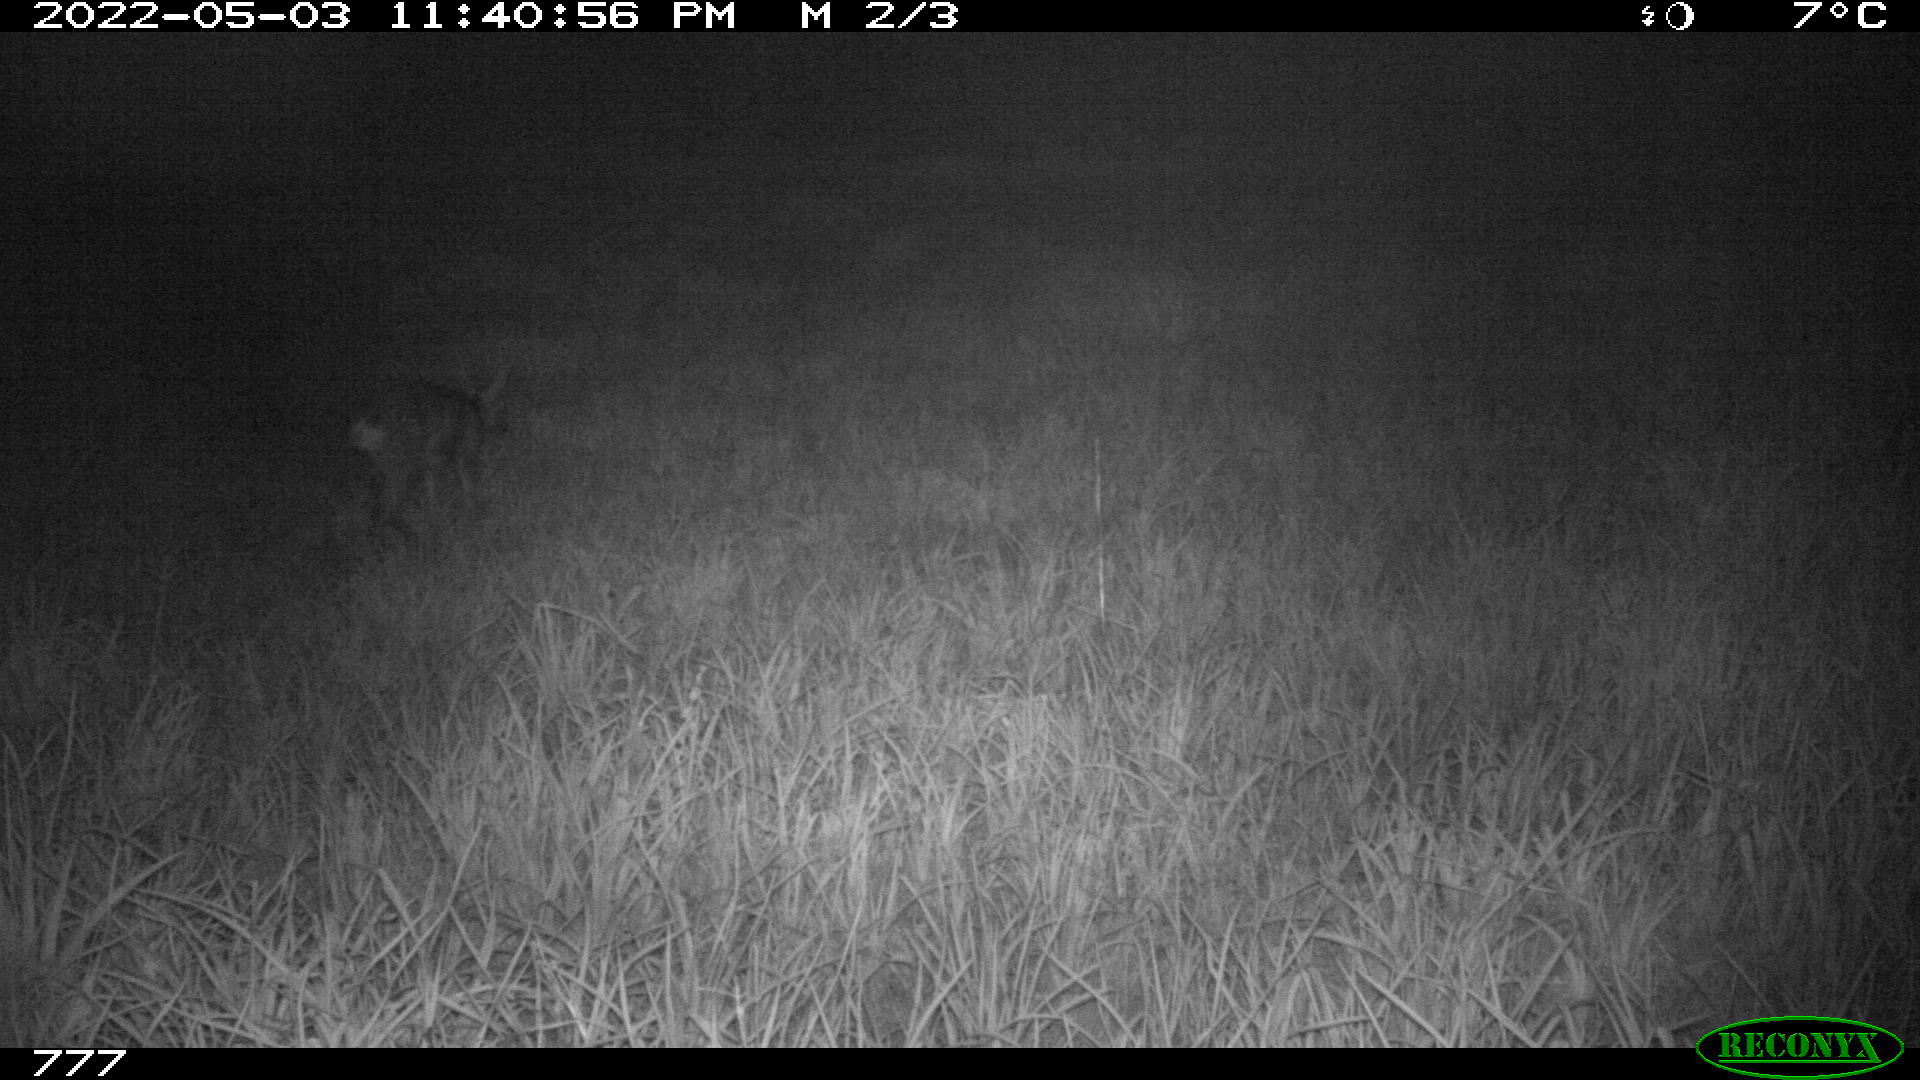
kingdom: Animalia
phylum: Chordata
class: Mammalia
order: Artiodactyla
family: Cervidae
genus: Capreolus
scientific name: Capreolus capreolus
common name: Western roe deer
